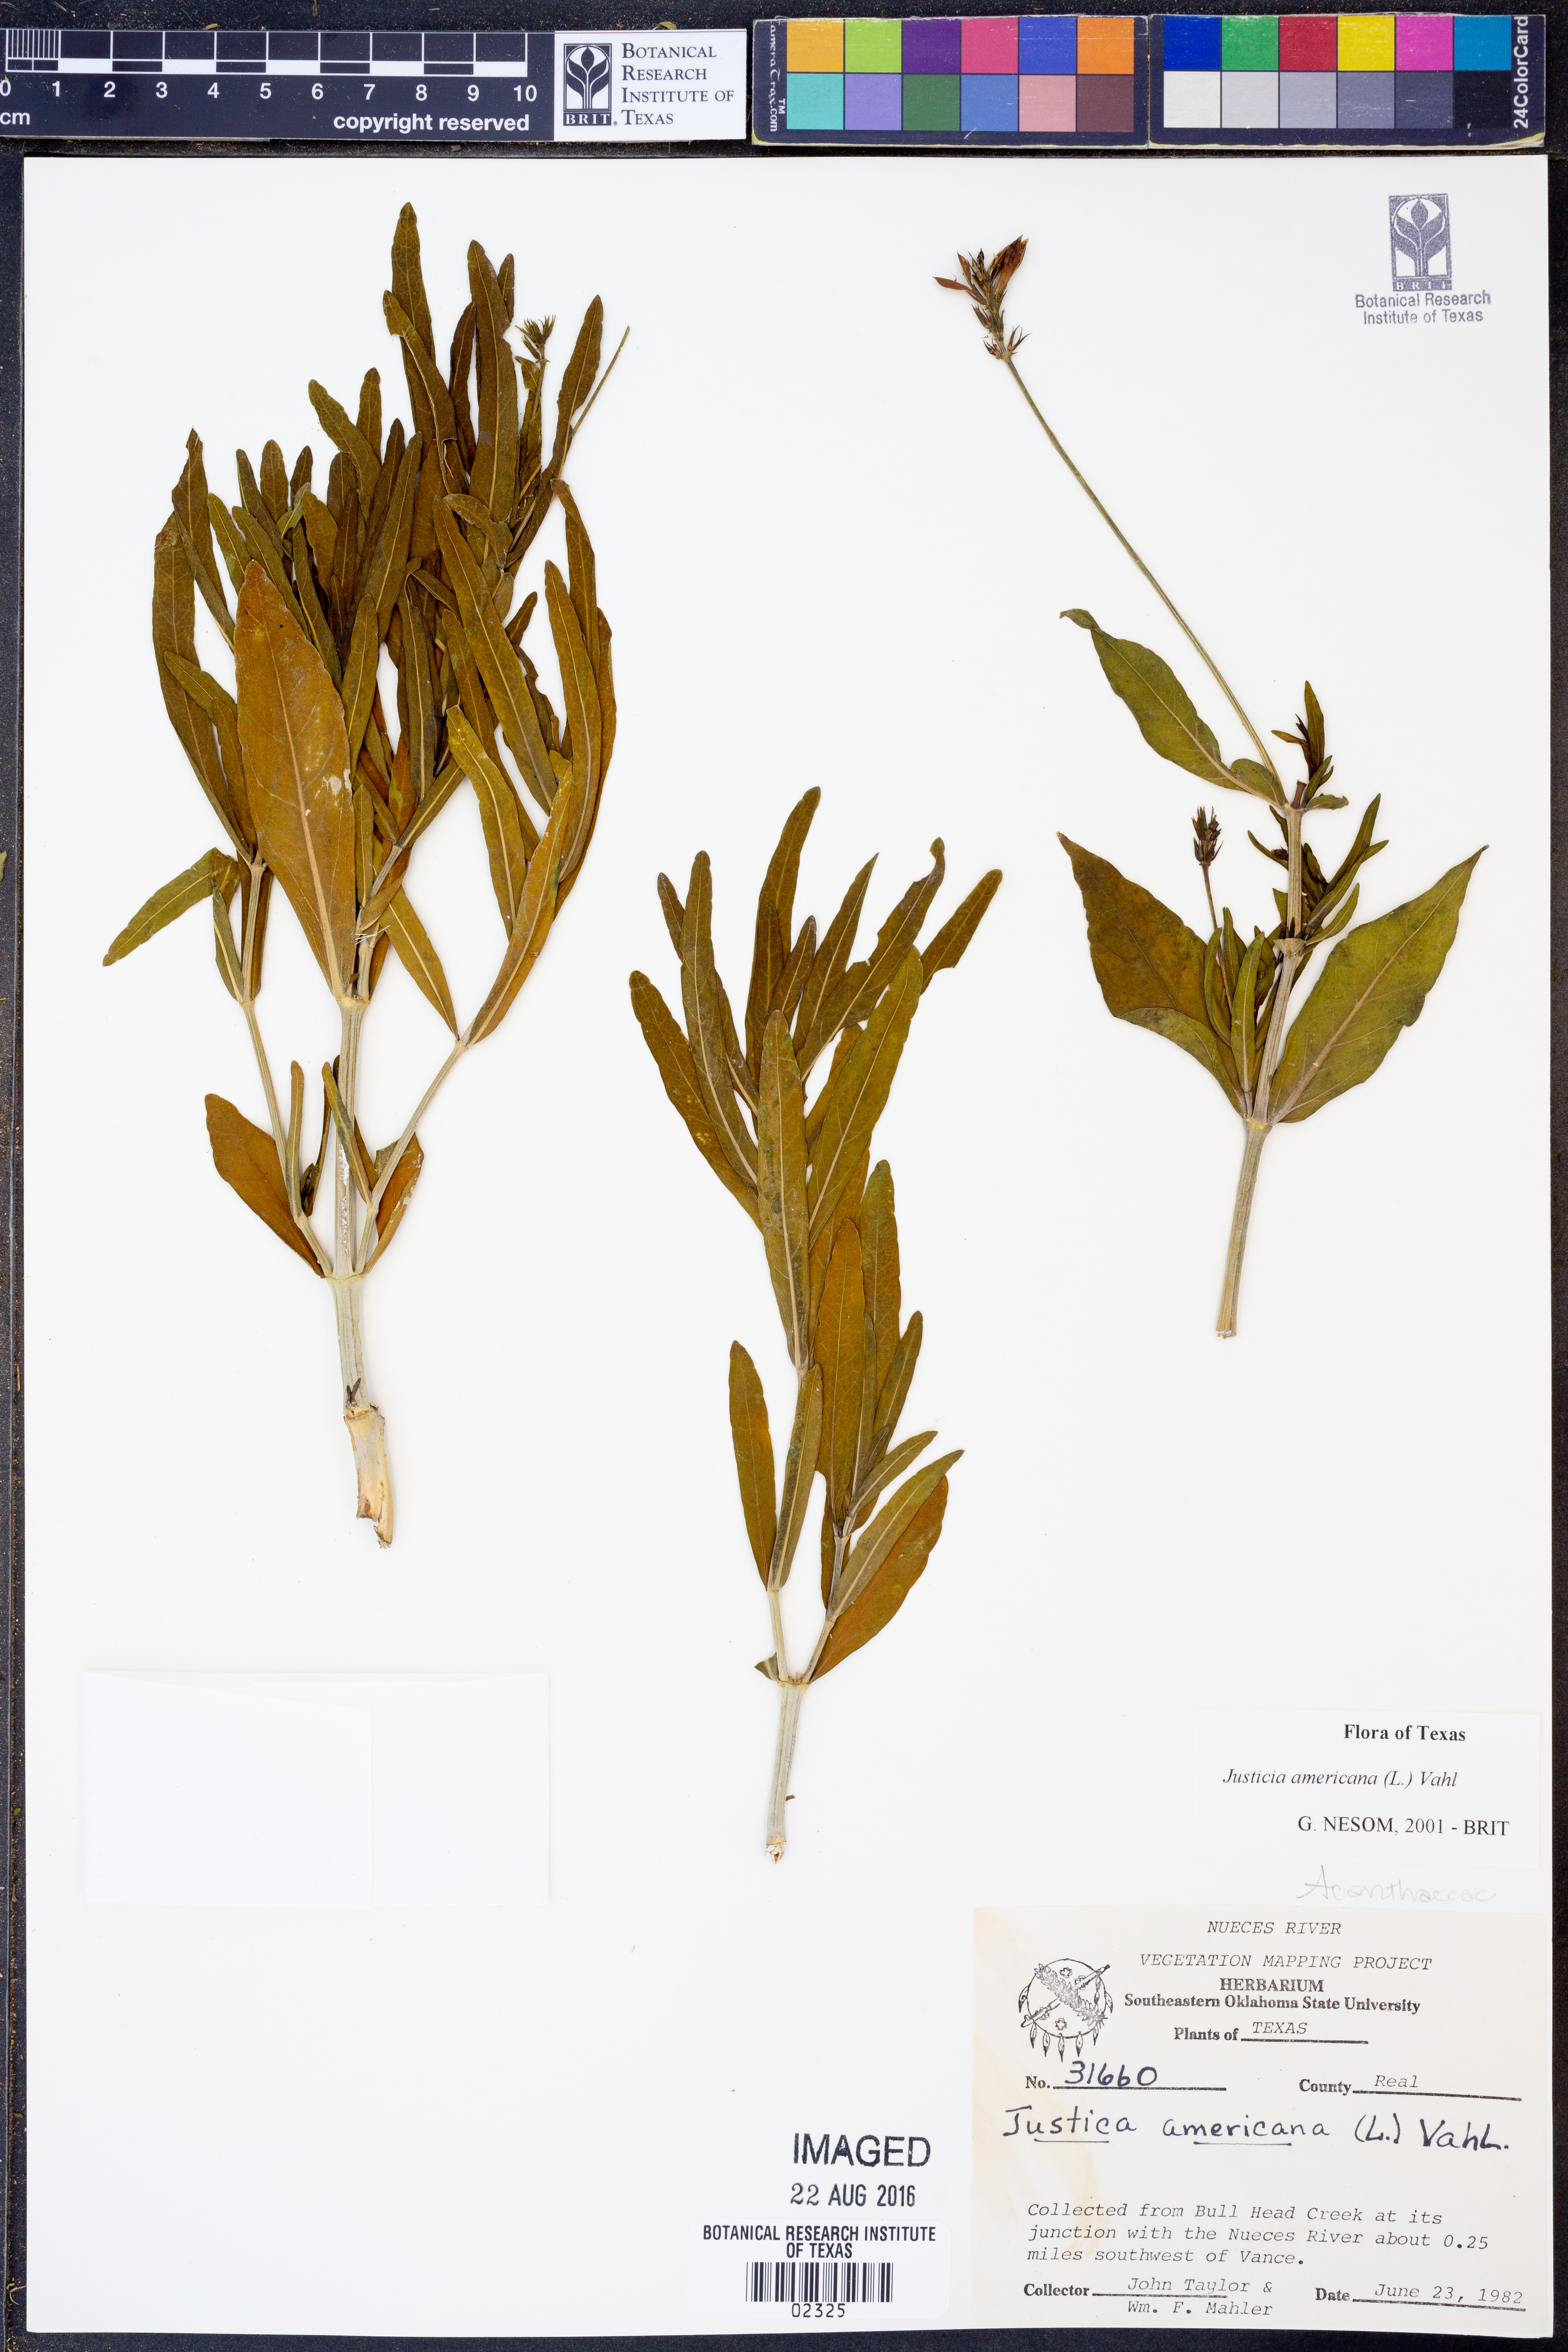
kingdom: Plantae
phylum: Tracheophyta
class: Magnoliopsida
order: Lamiales
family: Acanthaceae
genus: Dianthera
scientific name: Dianthera americana
